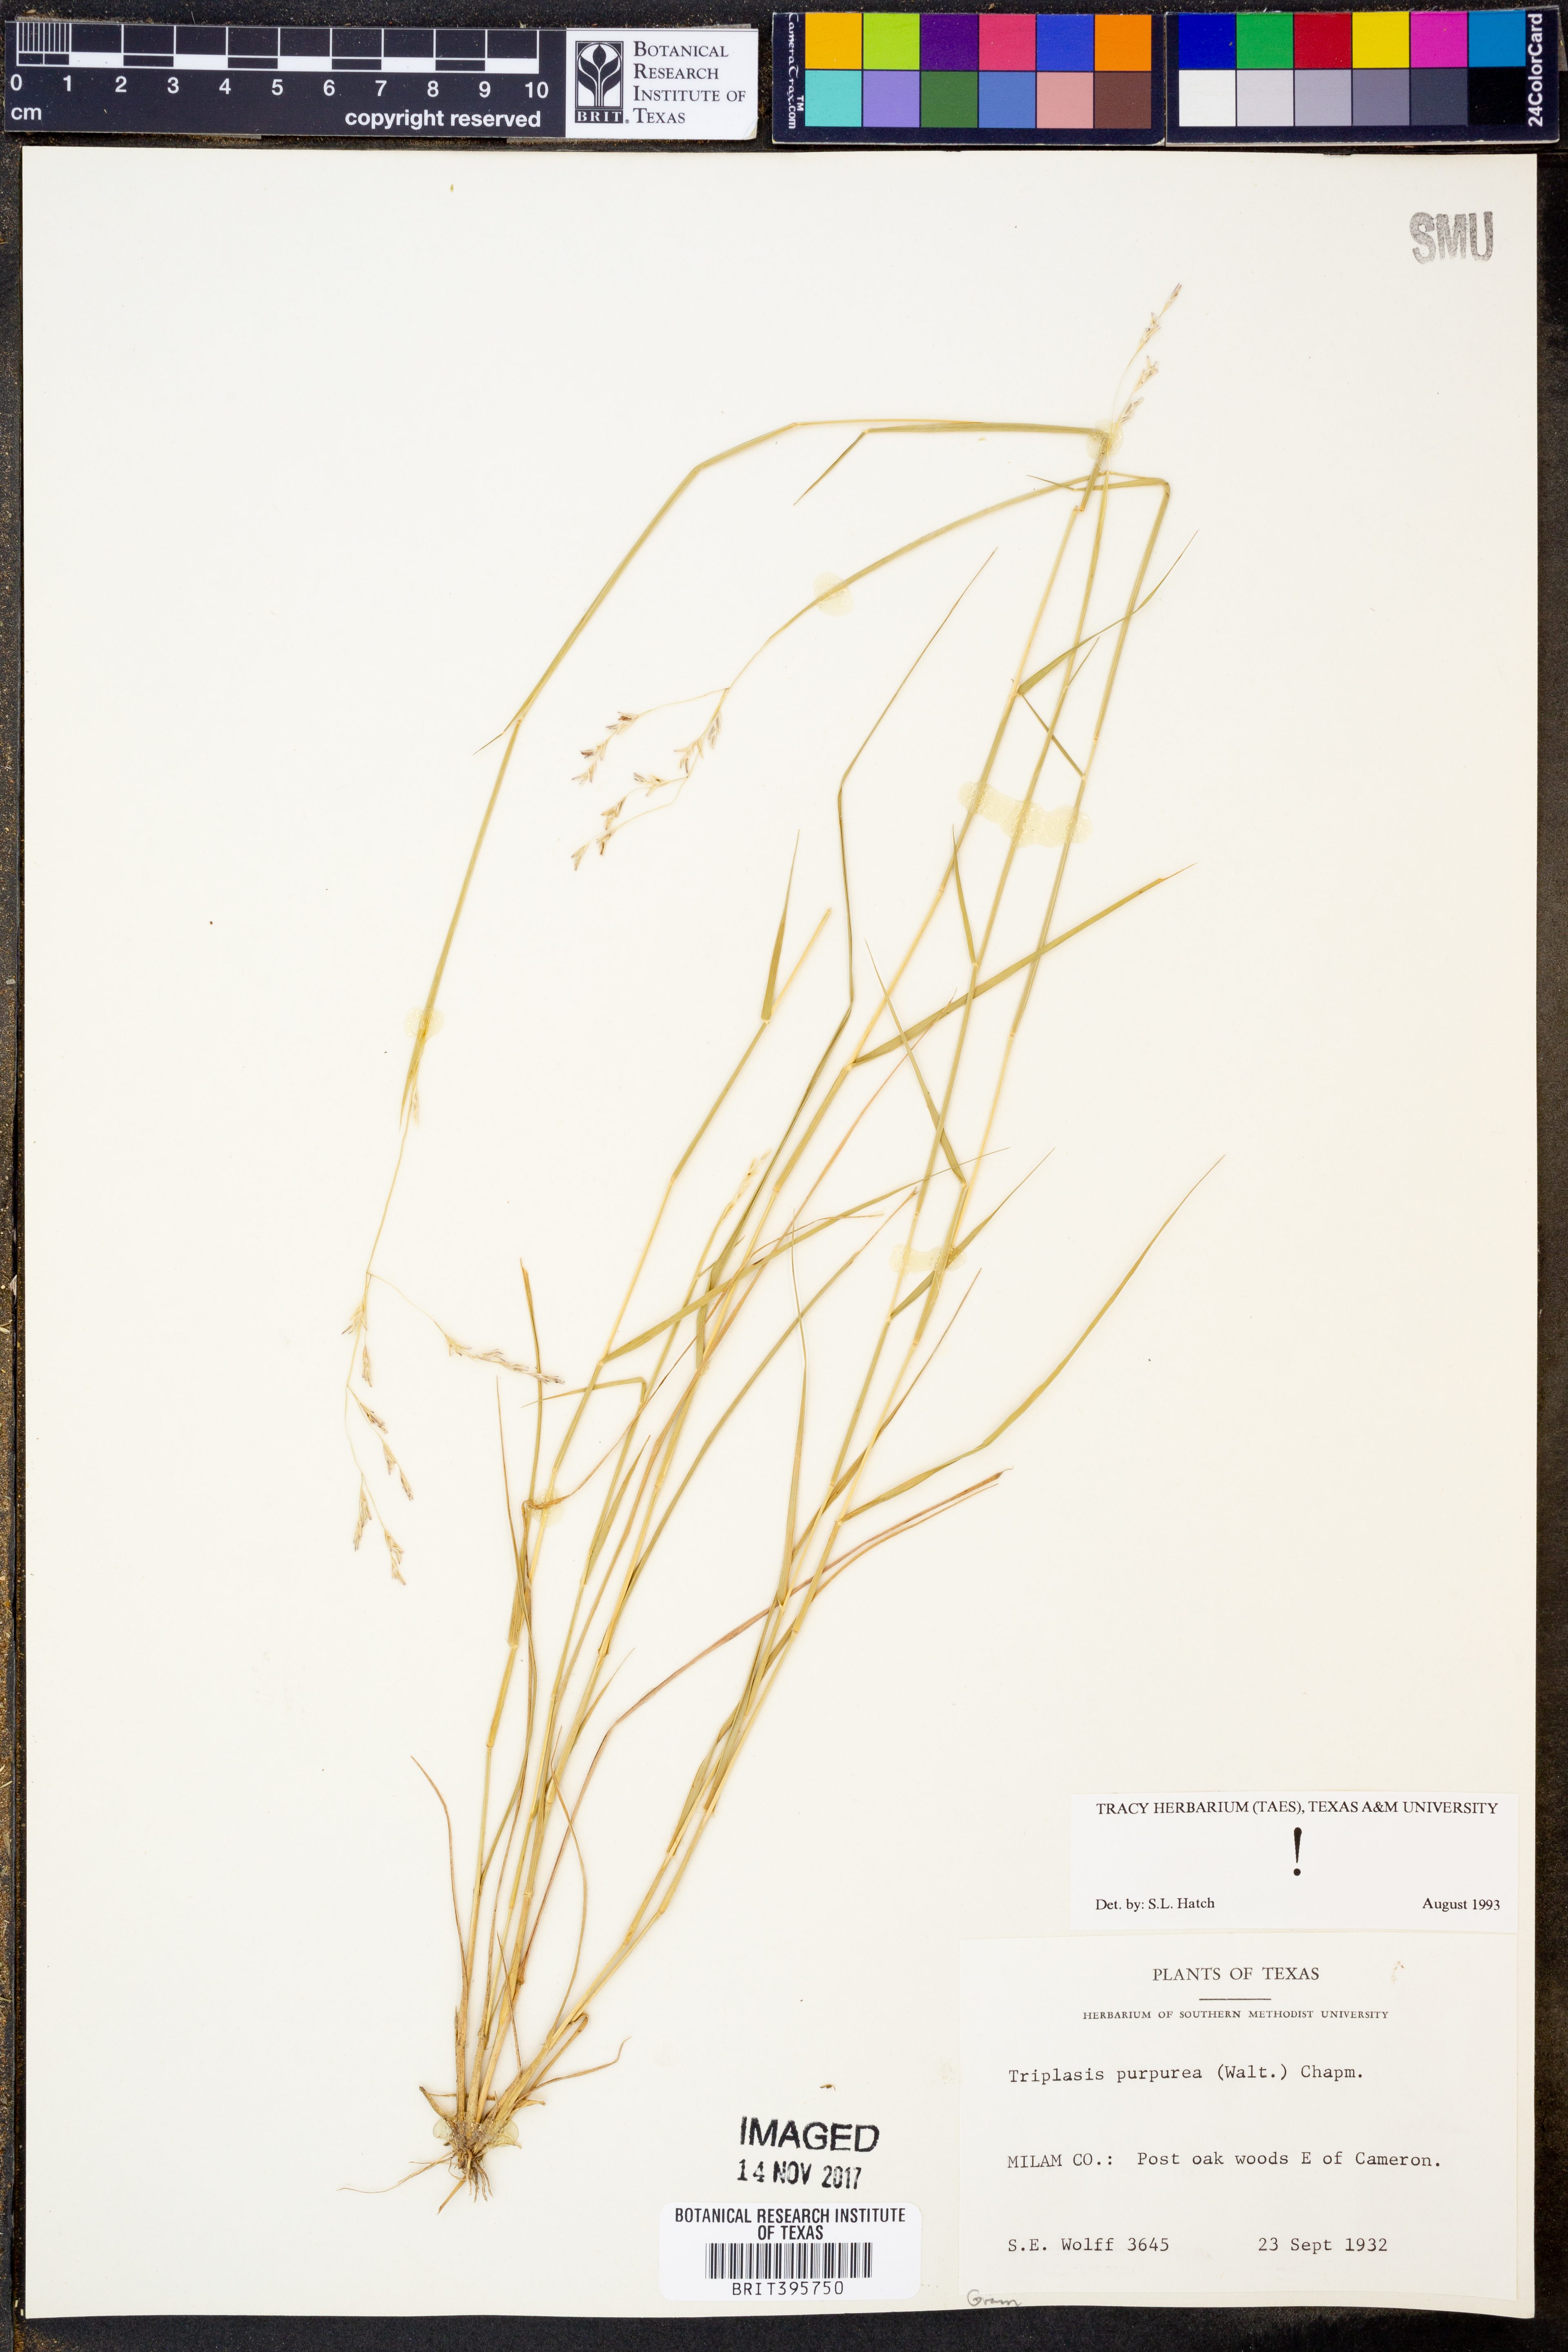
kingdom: Plantae
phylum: Tracheophyta
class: Liliopsida
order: Poales
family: Poaceae
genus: Triplasis
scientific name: Triplasis purpurea
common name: Purple sand grass
